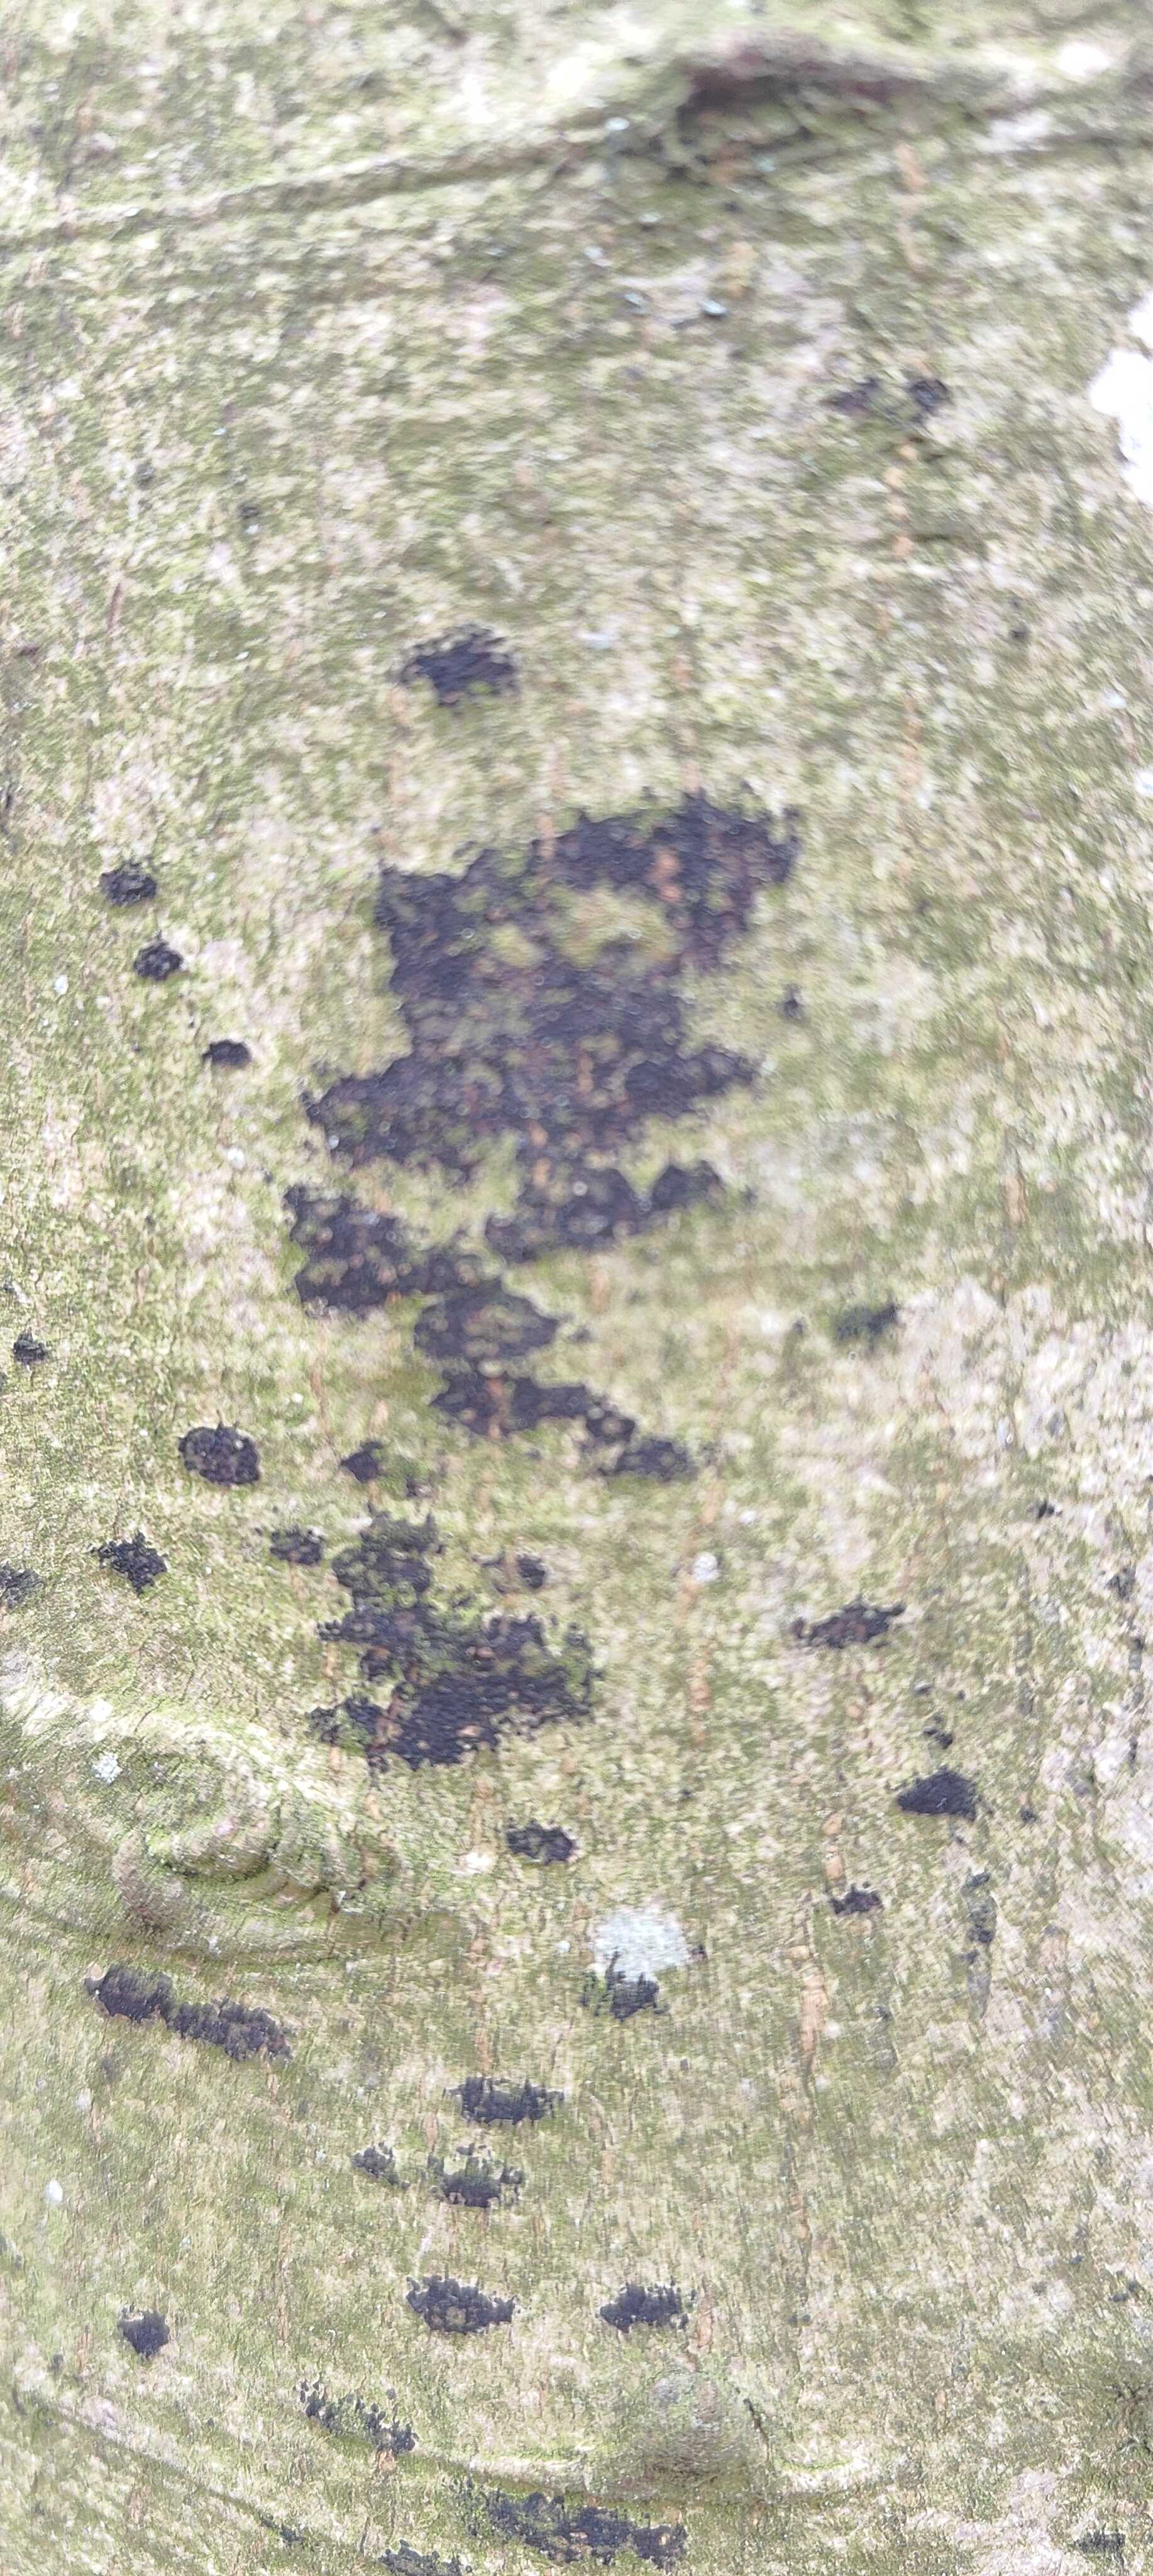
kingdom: Fungi
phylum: Ascomycota
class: Leotiomycetes
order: Rhytismatales
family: Ascodichaenaceae
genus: Ascodichaena
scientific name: Ascodichaena rugosa
